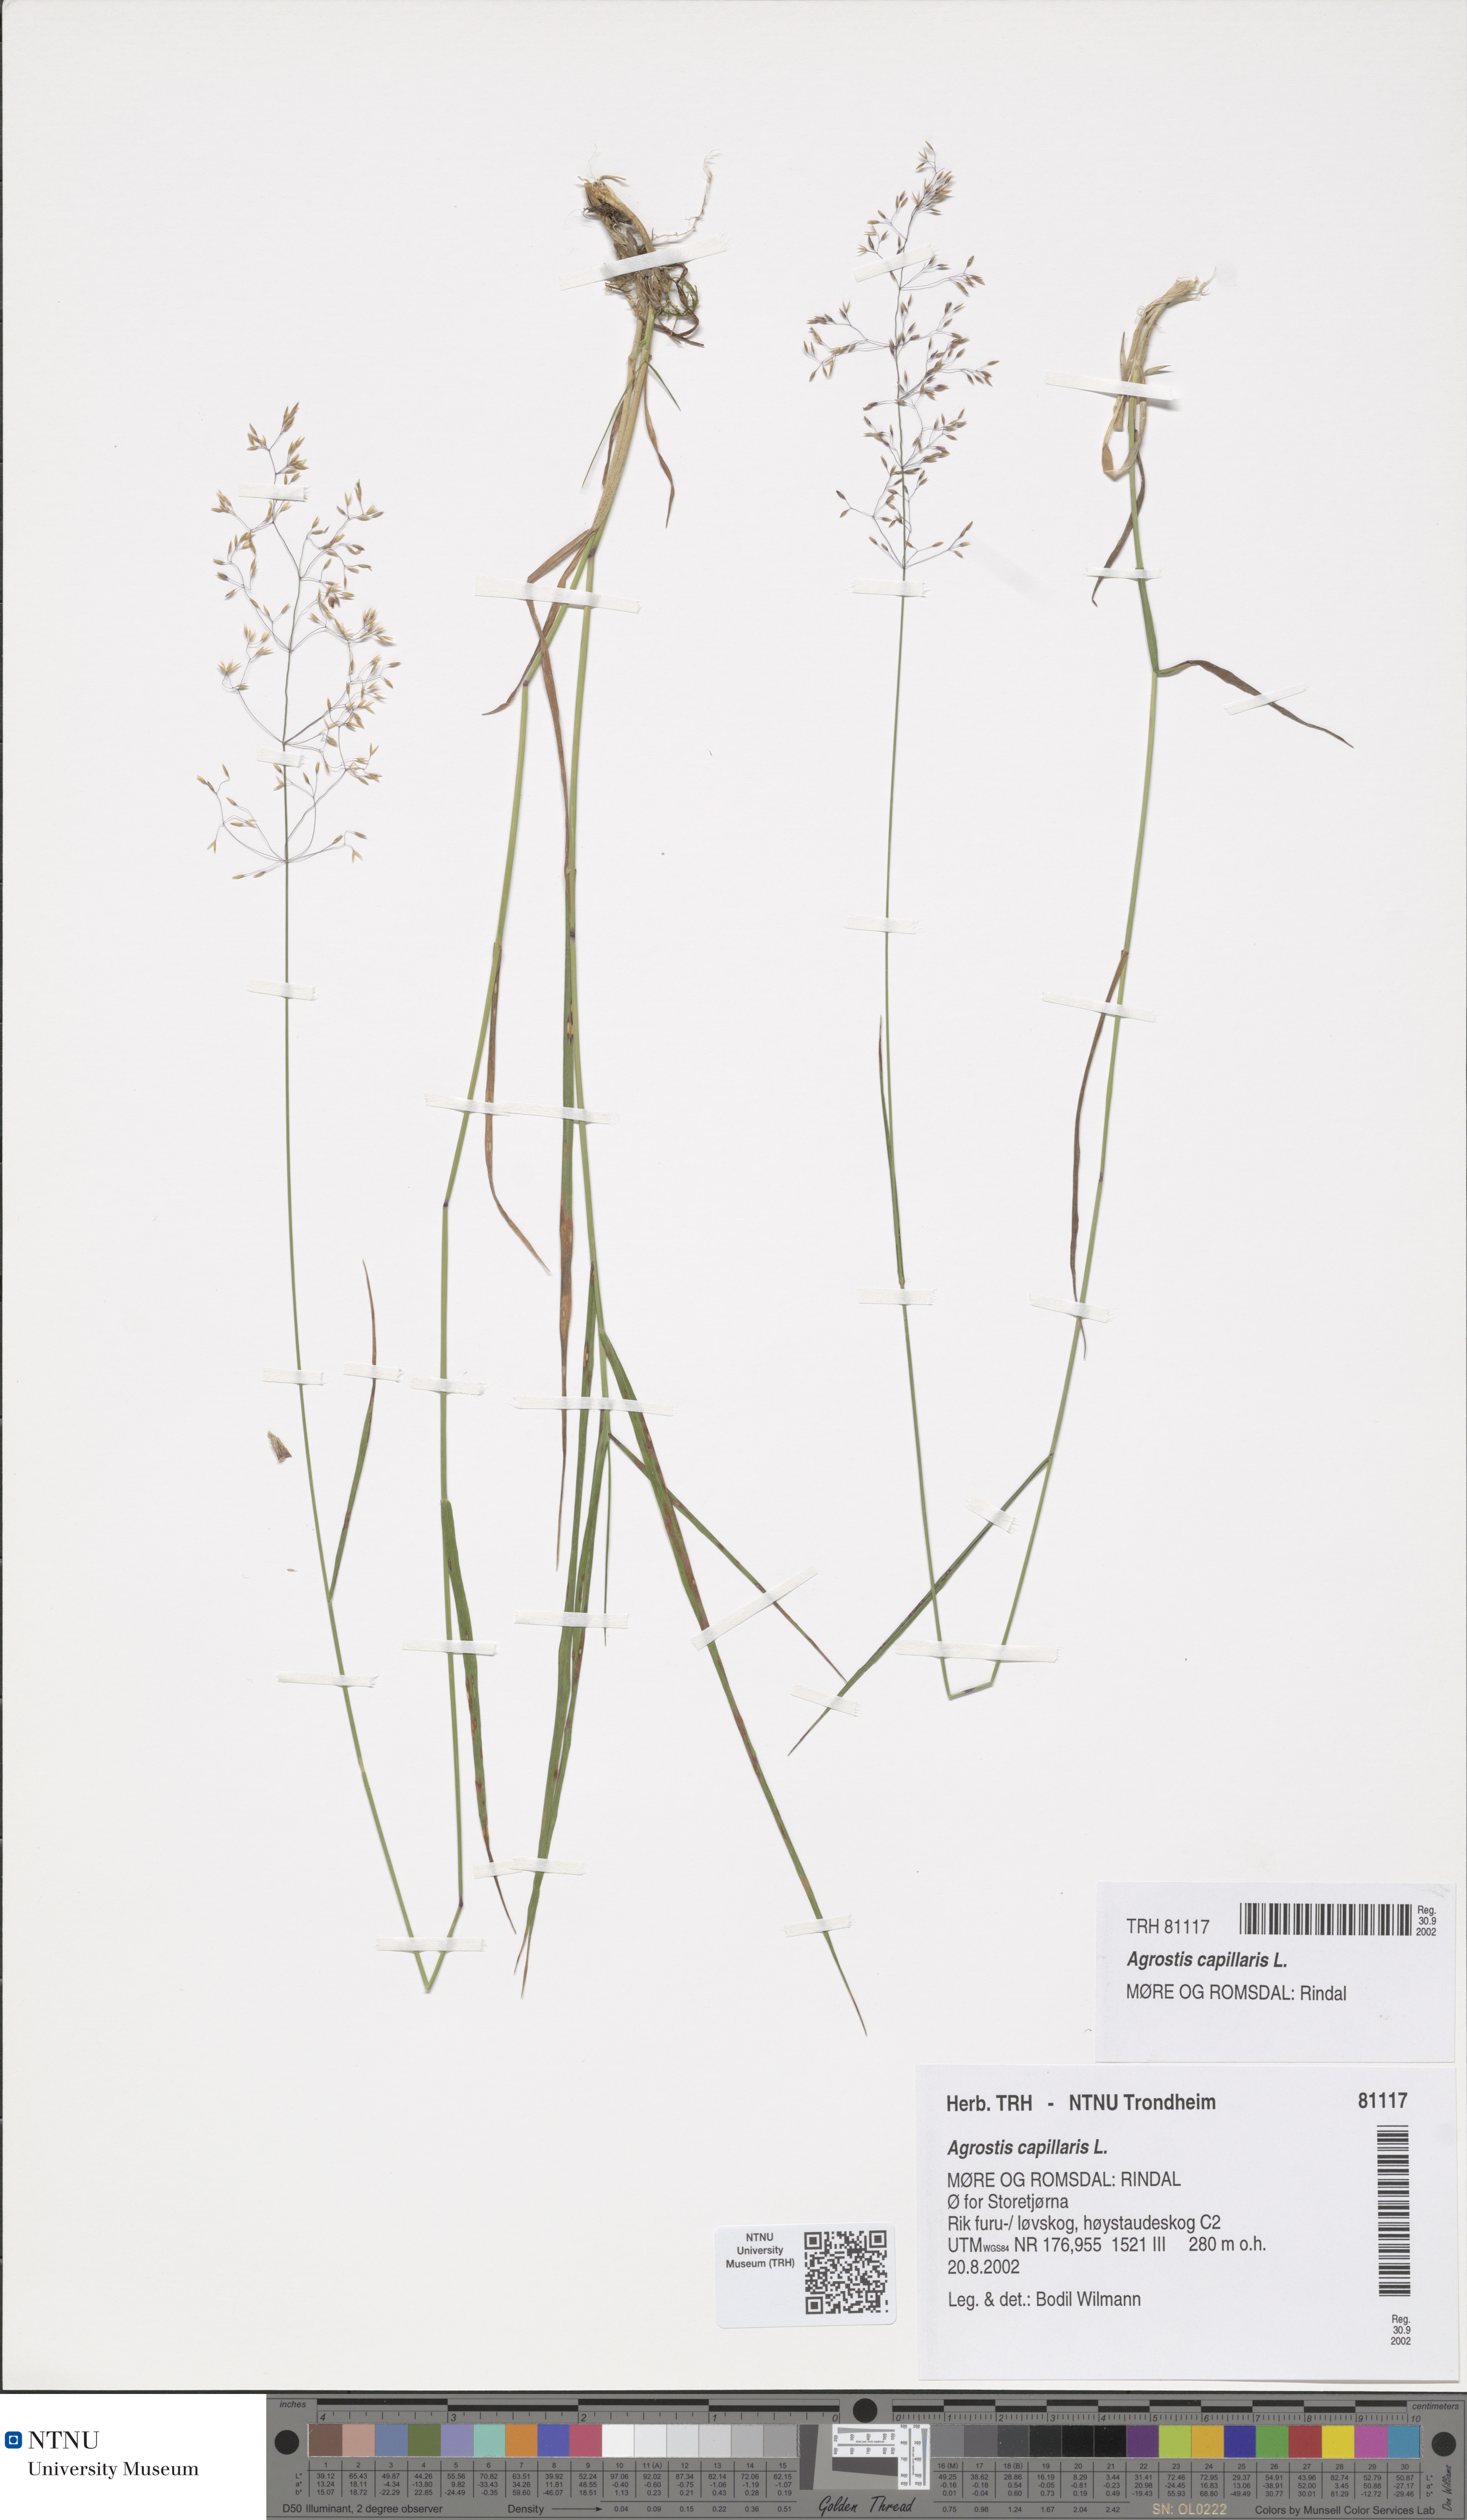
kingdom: Plantae
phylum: Tracheophyta
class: Liliopsida
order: Poales
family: Poaceae
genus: Agrostis
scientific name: Agrostis capillaris
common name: Colonial bentgrass
